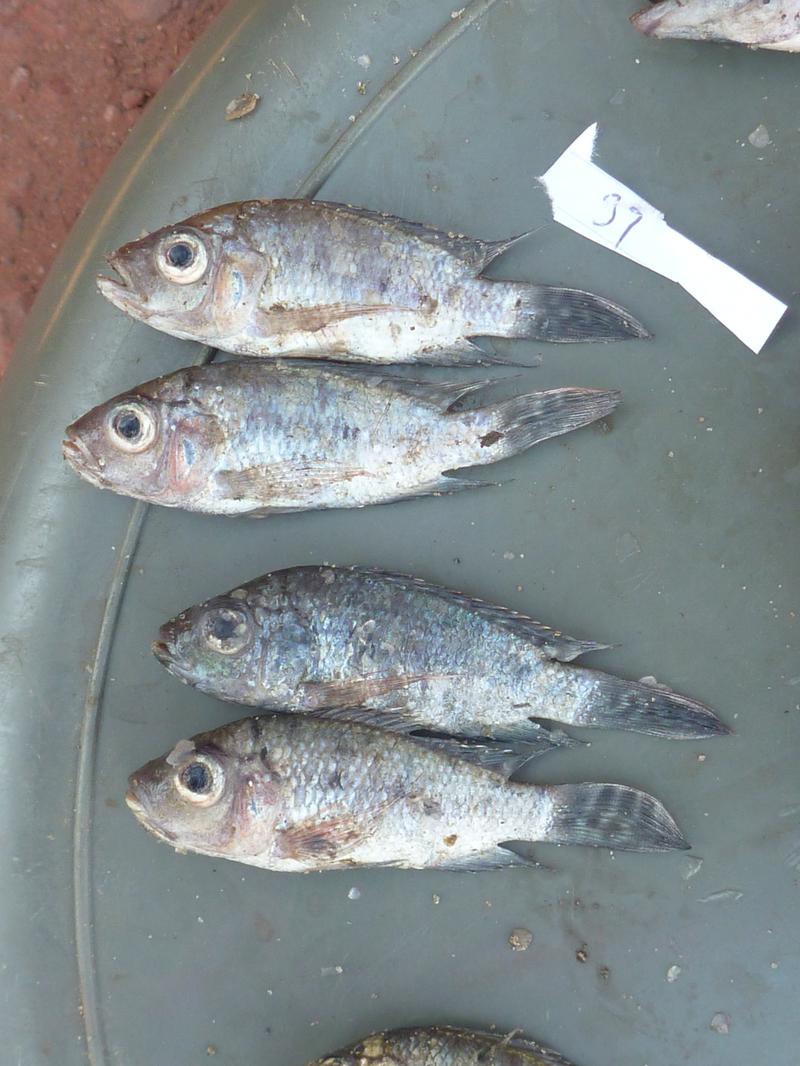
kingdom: Animalia
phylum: Chordata
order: Perciformes
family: Cichlidae
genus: Oreochromis
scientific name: Oreochromis korogwe
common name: Korogwe tilapia
